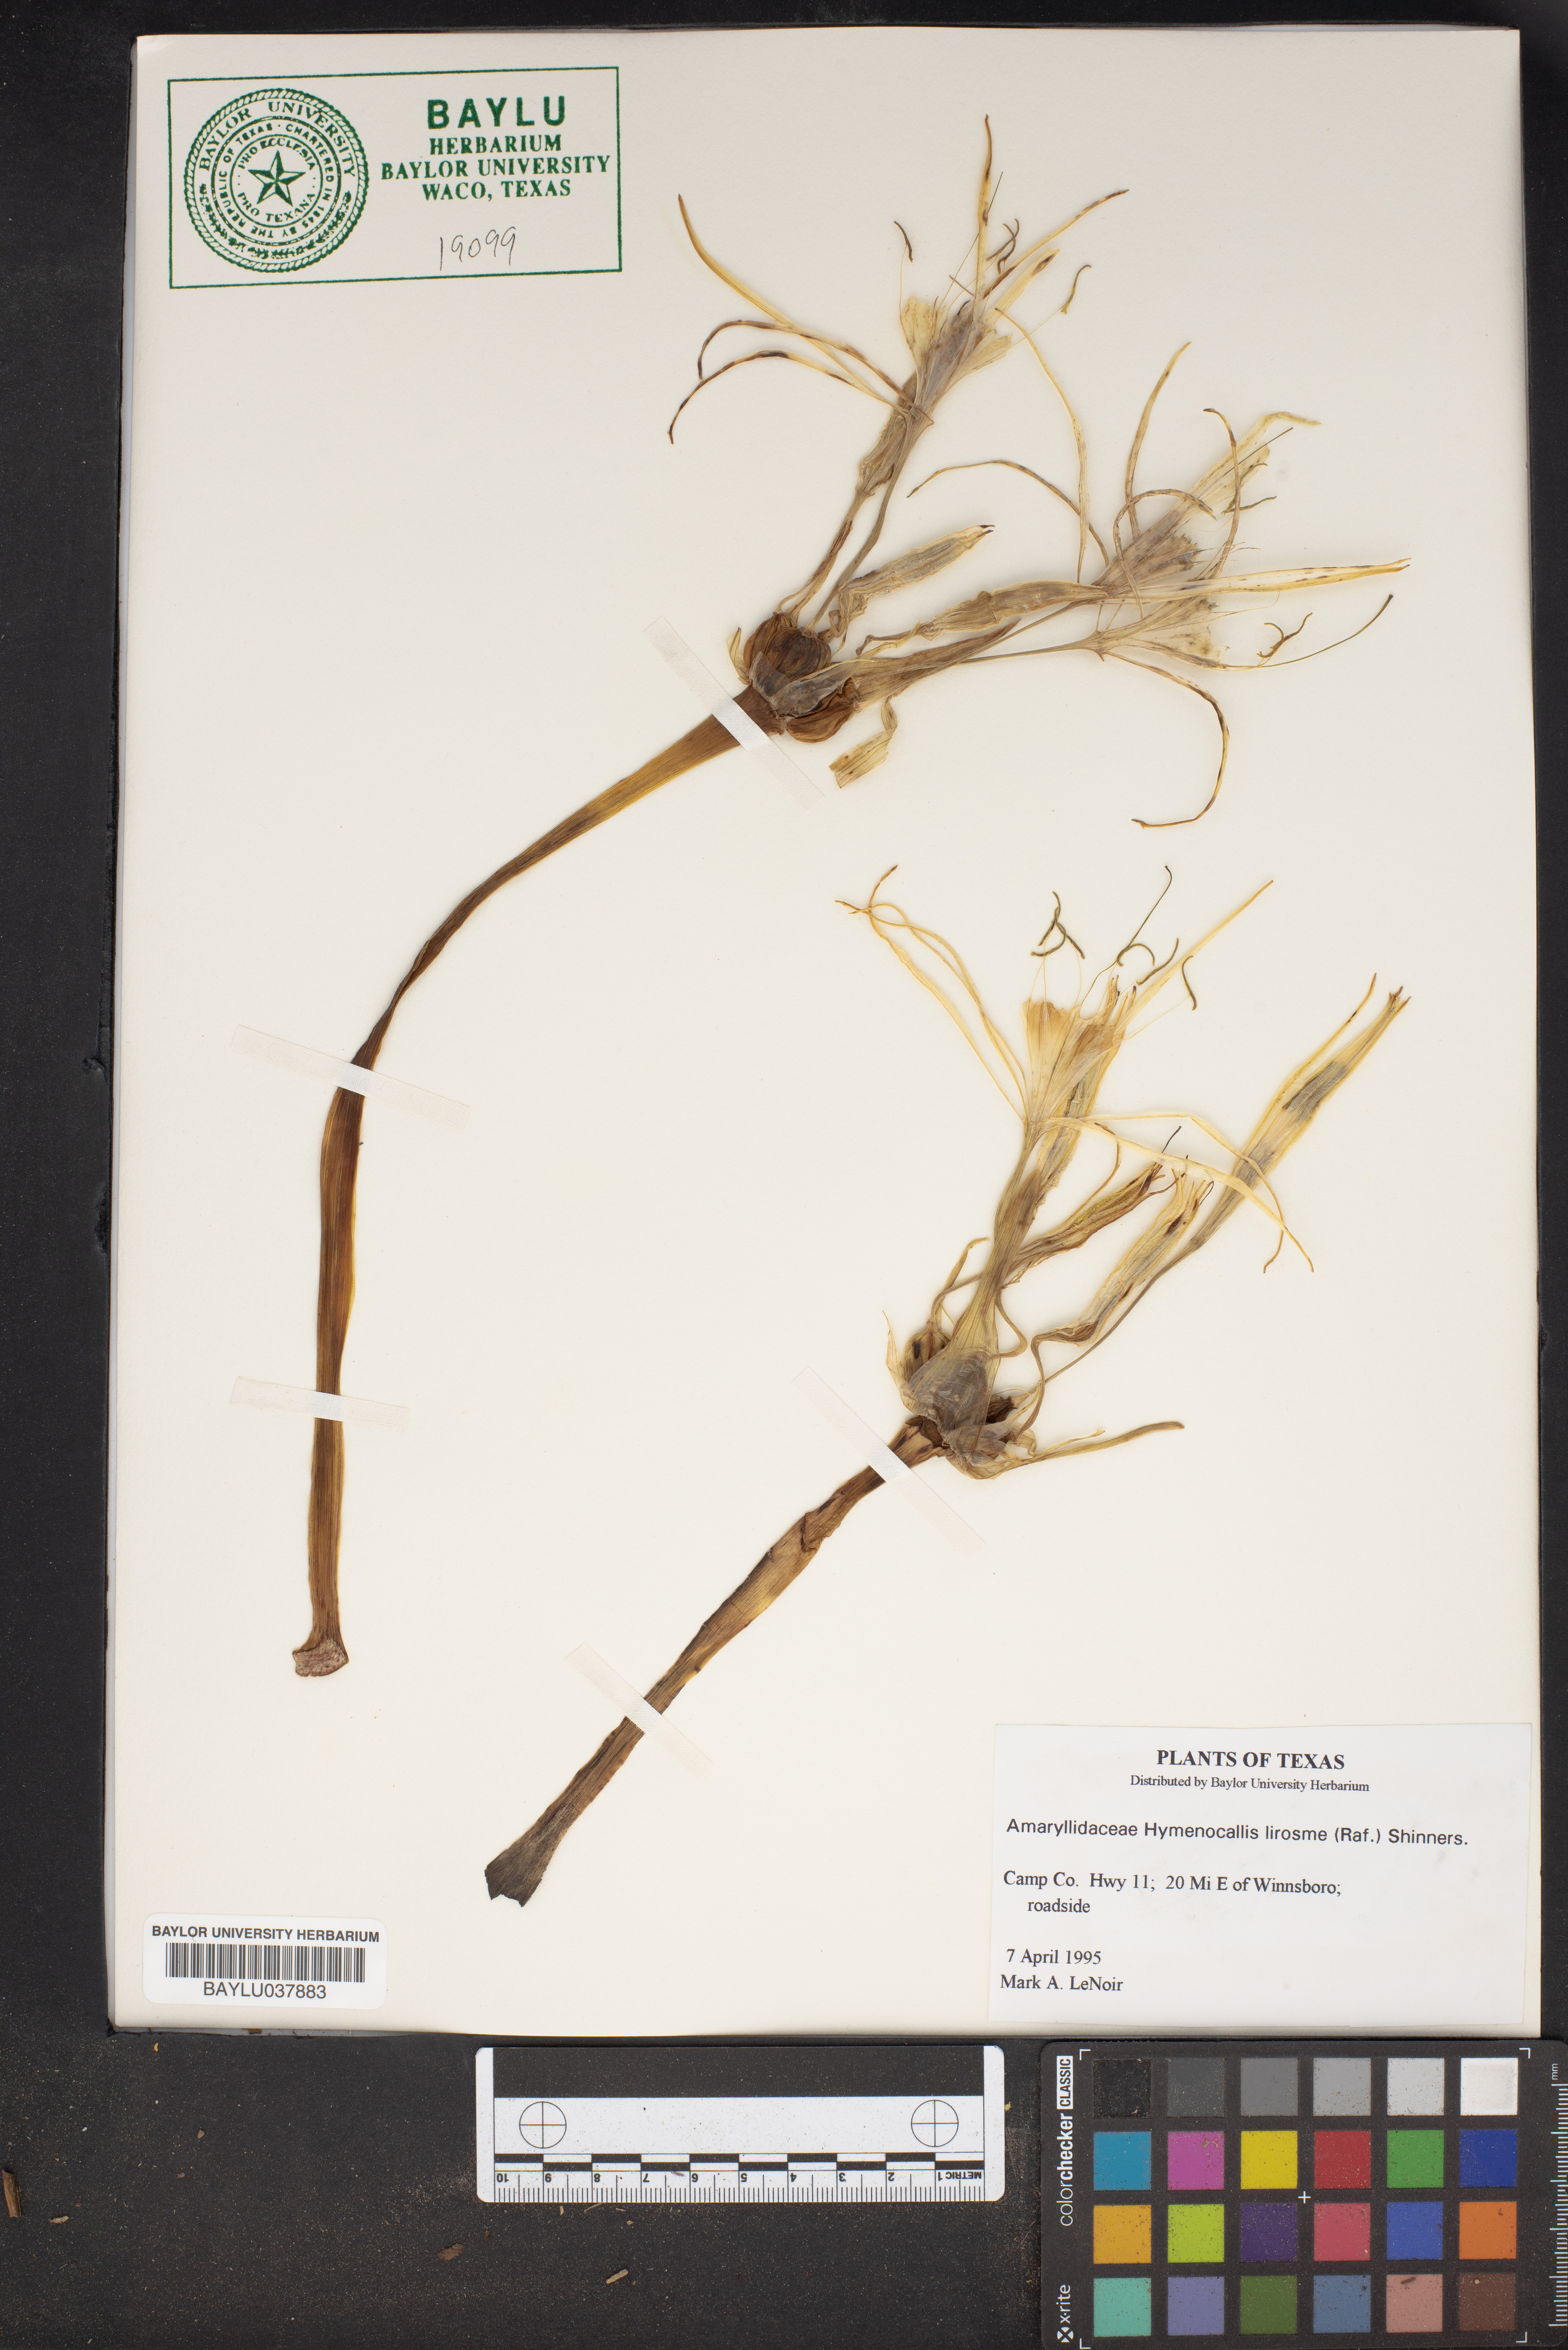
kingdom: Plantae
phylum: Tracheophyta
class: Liliopsida
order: Asparagales
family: Amaryllidaceae
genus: Hymenocallis
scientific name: Hymenocallis liriosme
